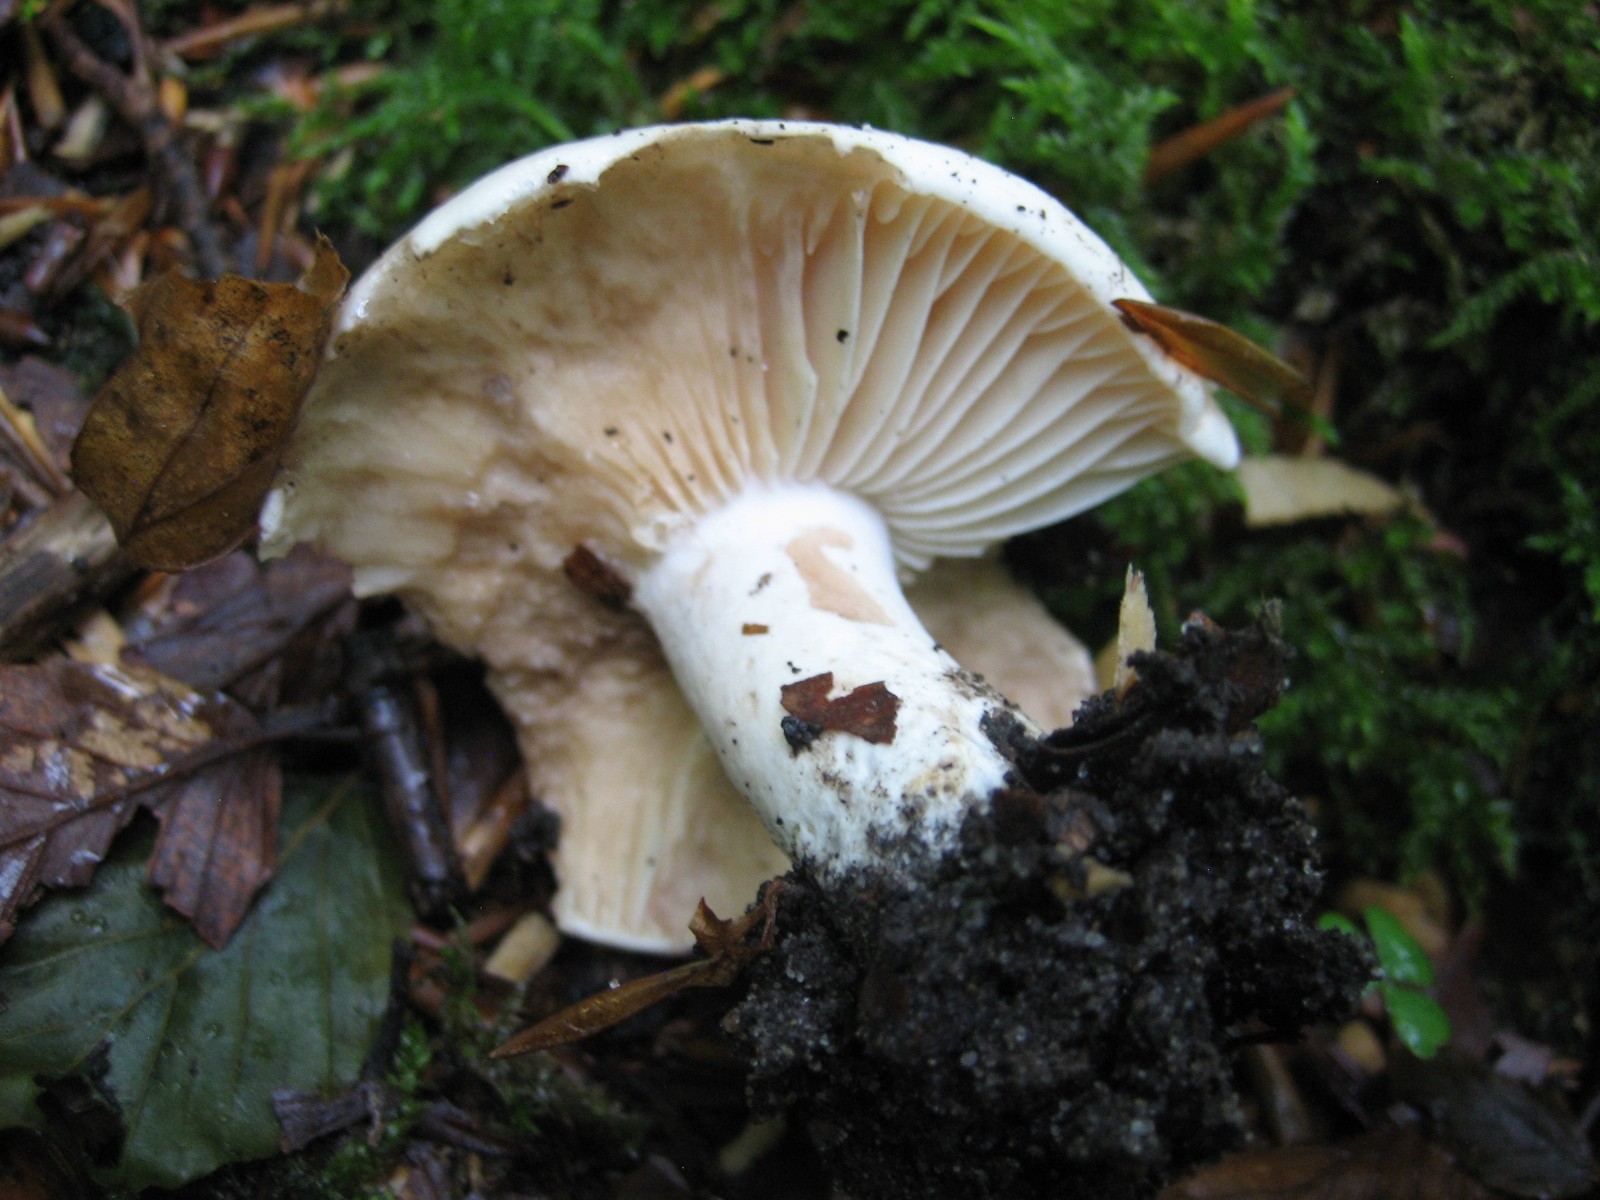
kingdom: Fungi
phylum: Basidiomycota
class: Agaricomycetes
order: Russulales
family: Russulaceae
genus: Russula
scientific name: Russula adusta
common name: sværtende skørhat
